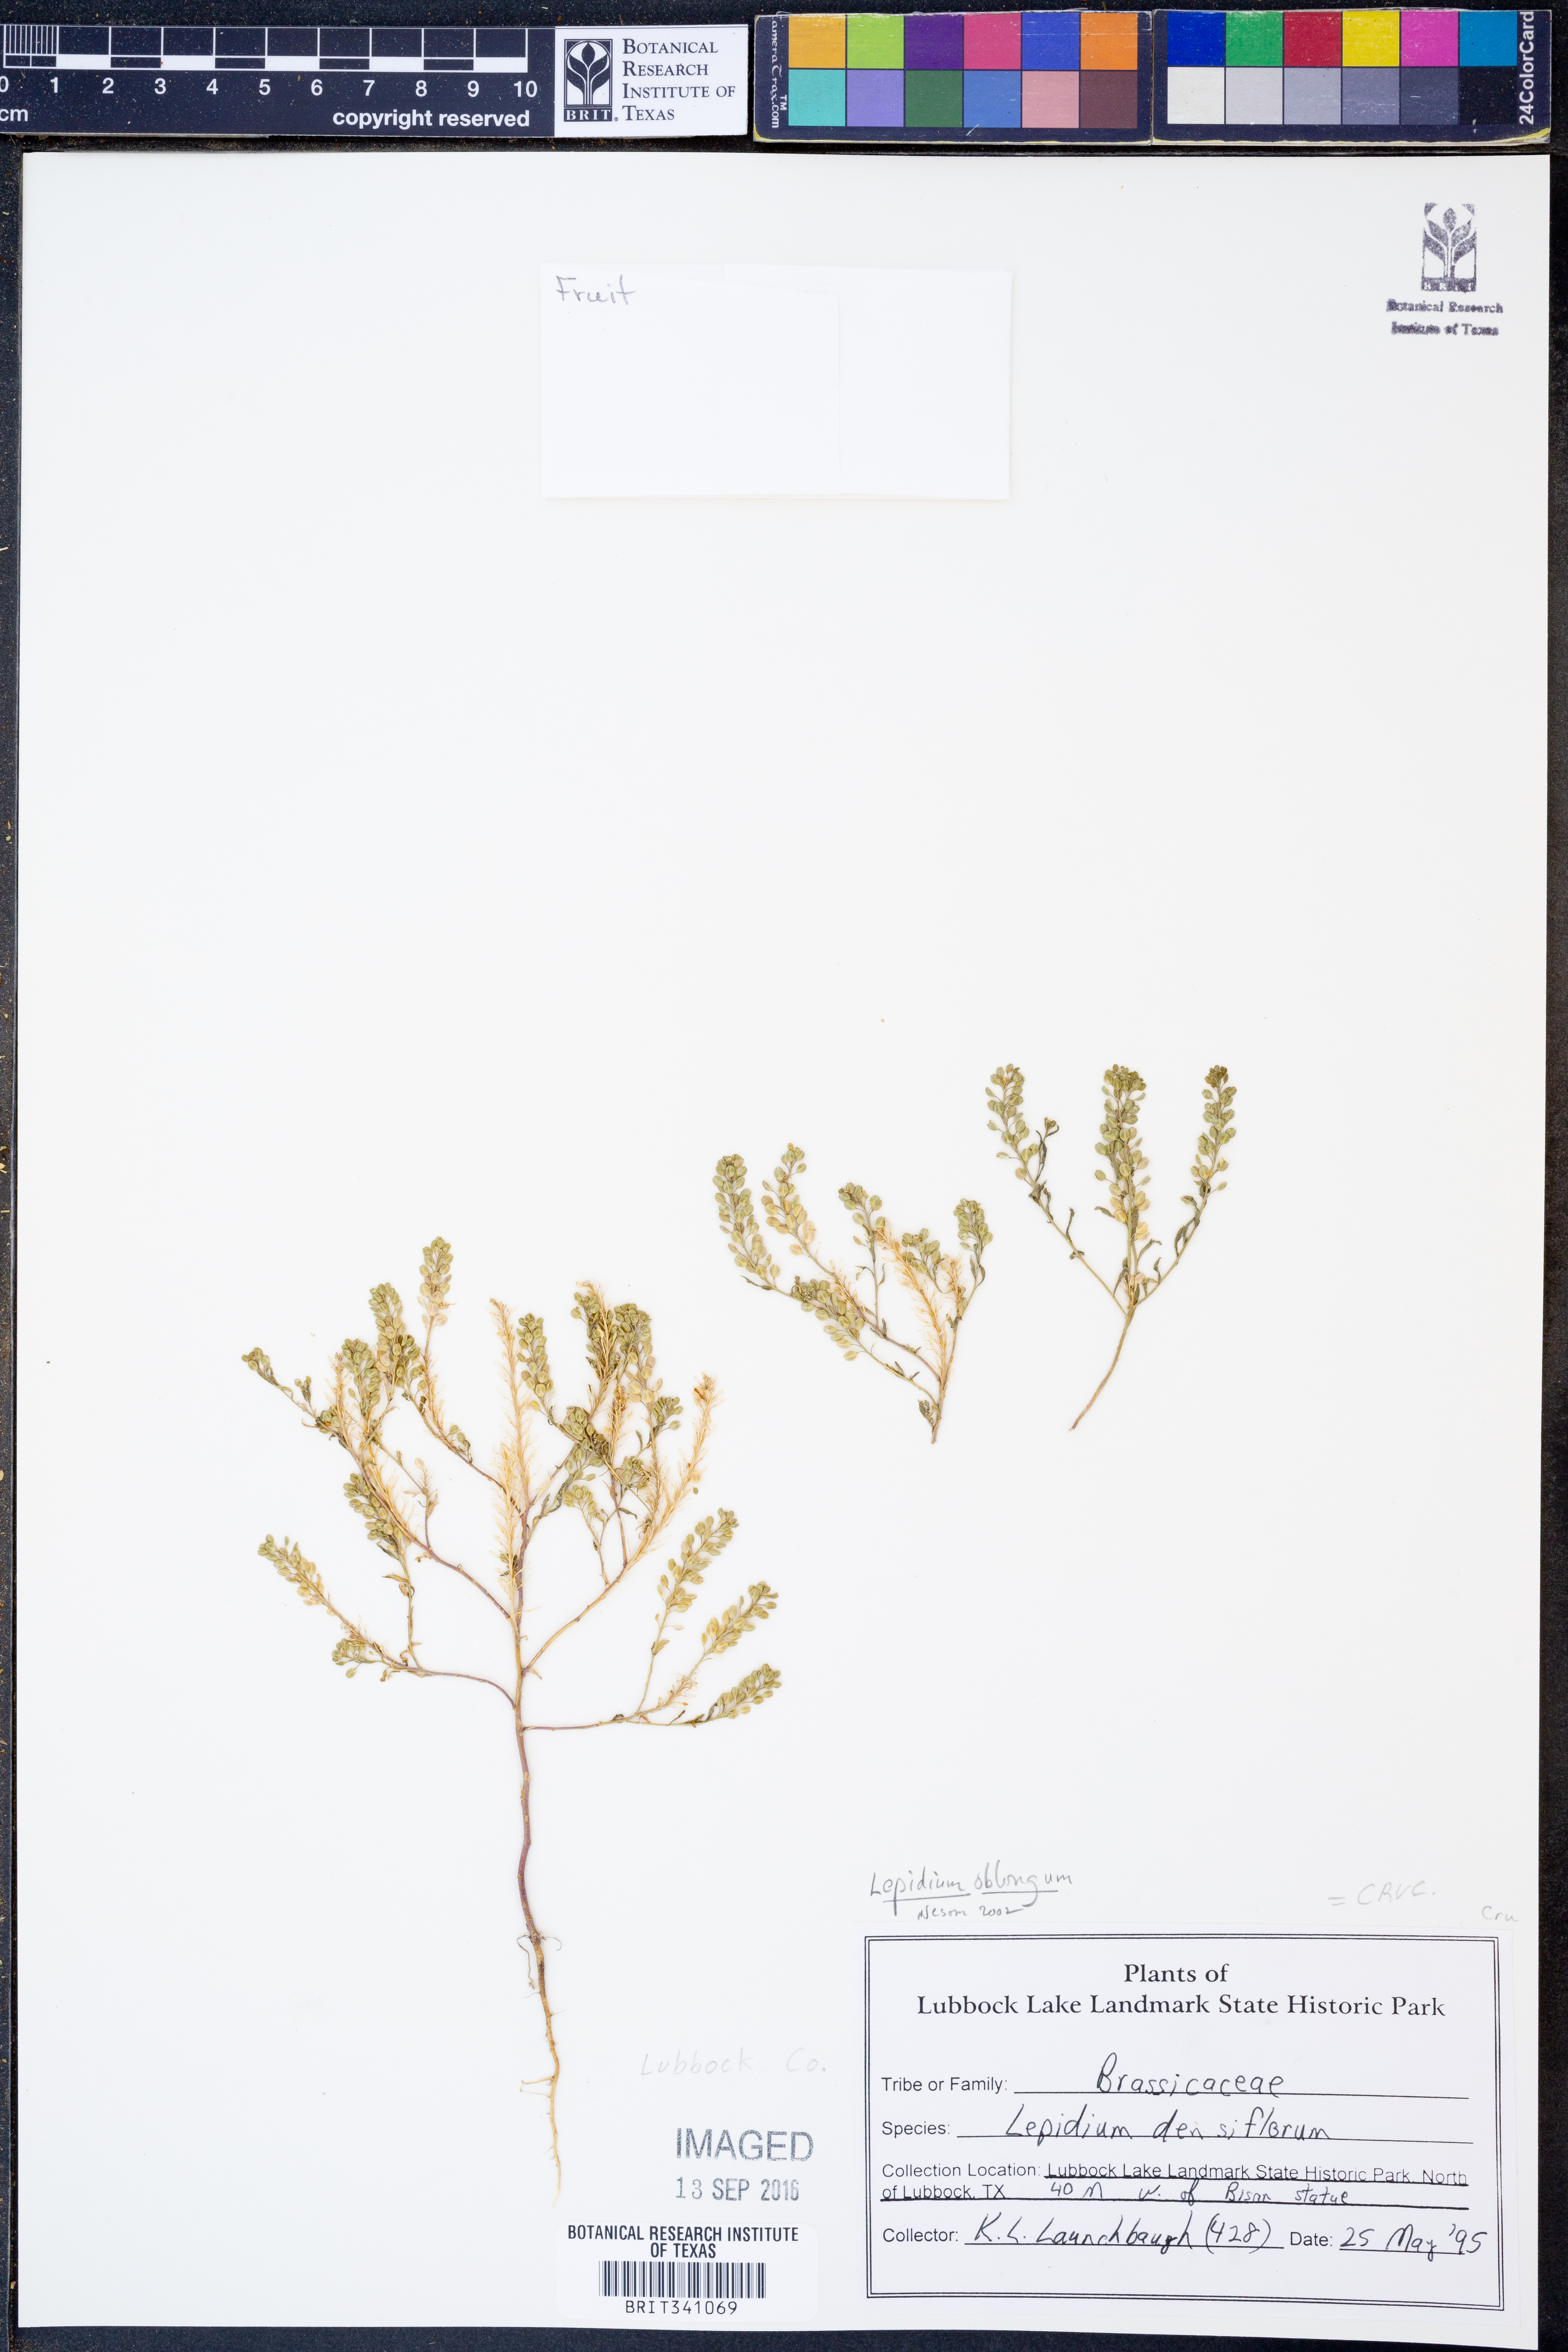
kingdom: Plantae
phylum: Tracheophyta
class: Magnoliopsida
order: Brassicales
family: Brassicaceae
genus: Lepidium
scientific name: Lepidium oblongum
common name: Veiny pepperweed
